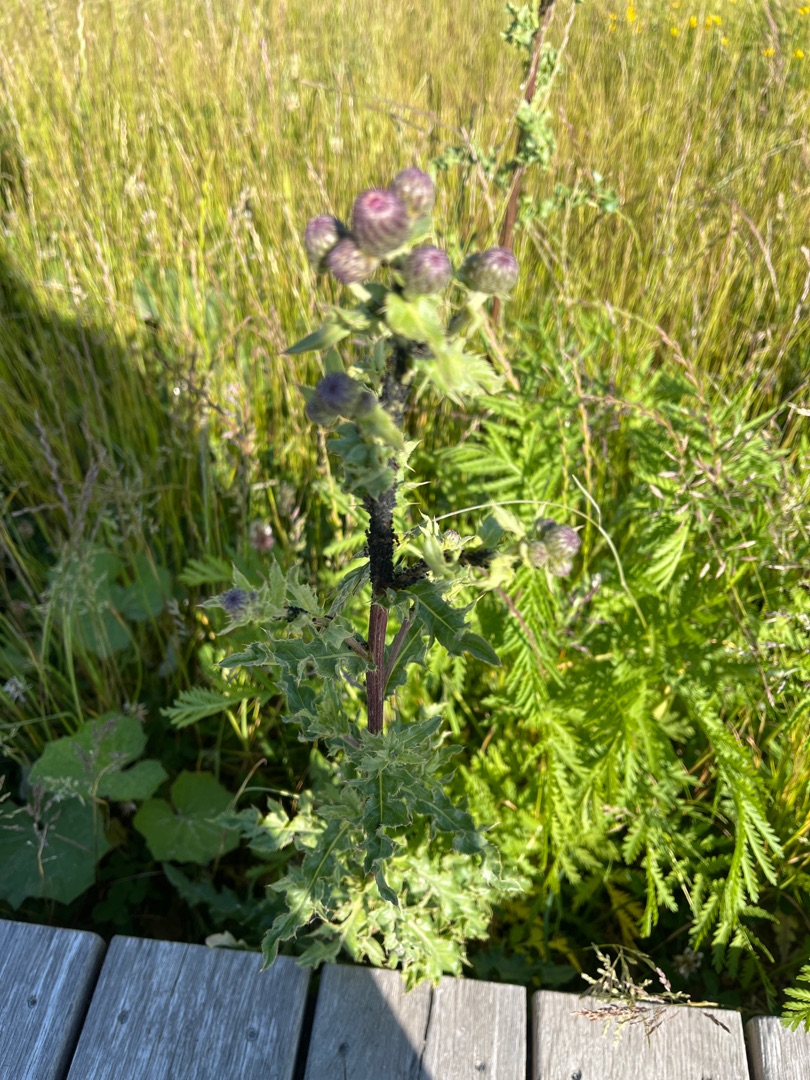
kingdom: Plantae
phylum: Tracheophyta
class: Magnoliopsida
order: Asterales
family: Asteraceae
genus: Cirsium
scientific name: Cirsium arvense
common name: Ager-tidsel
